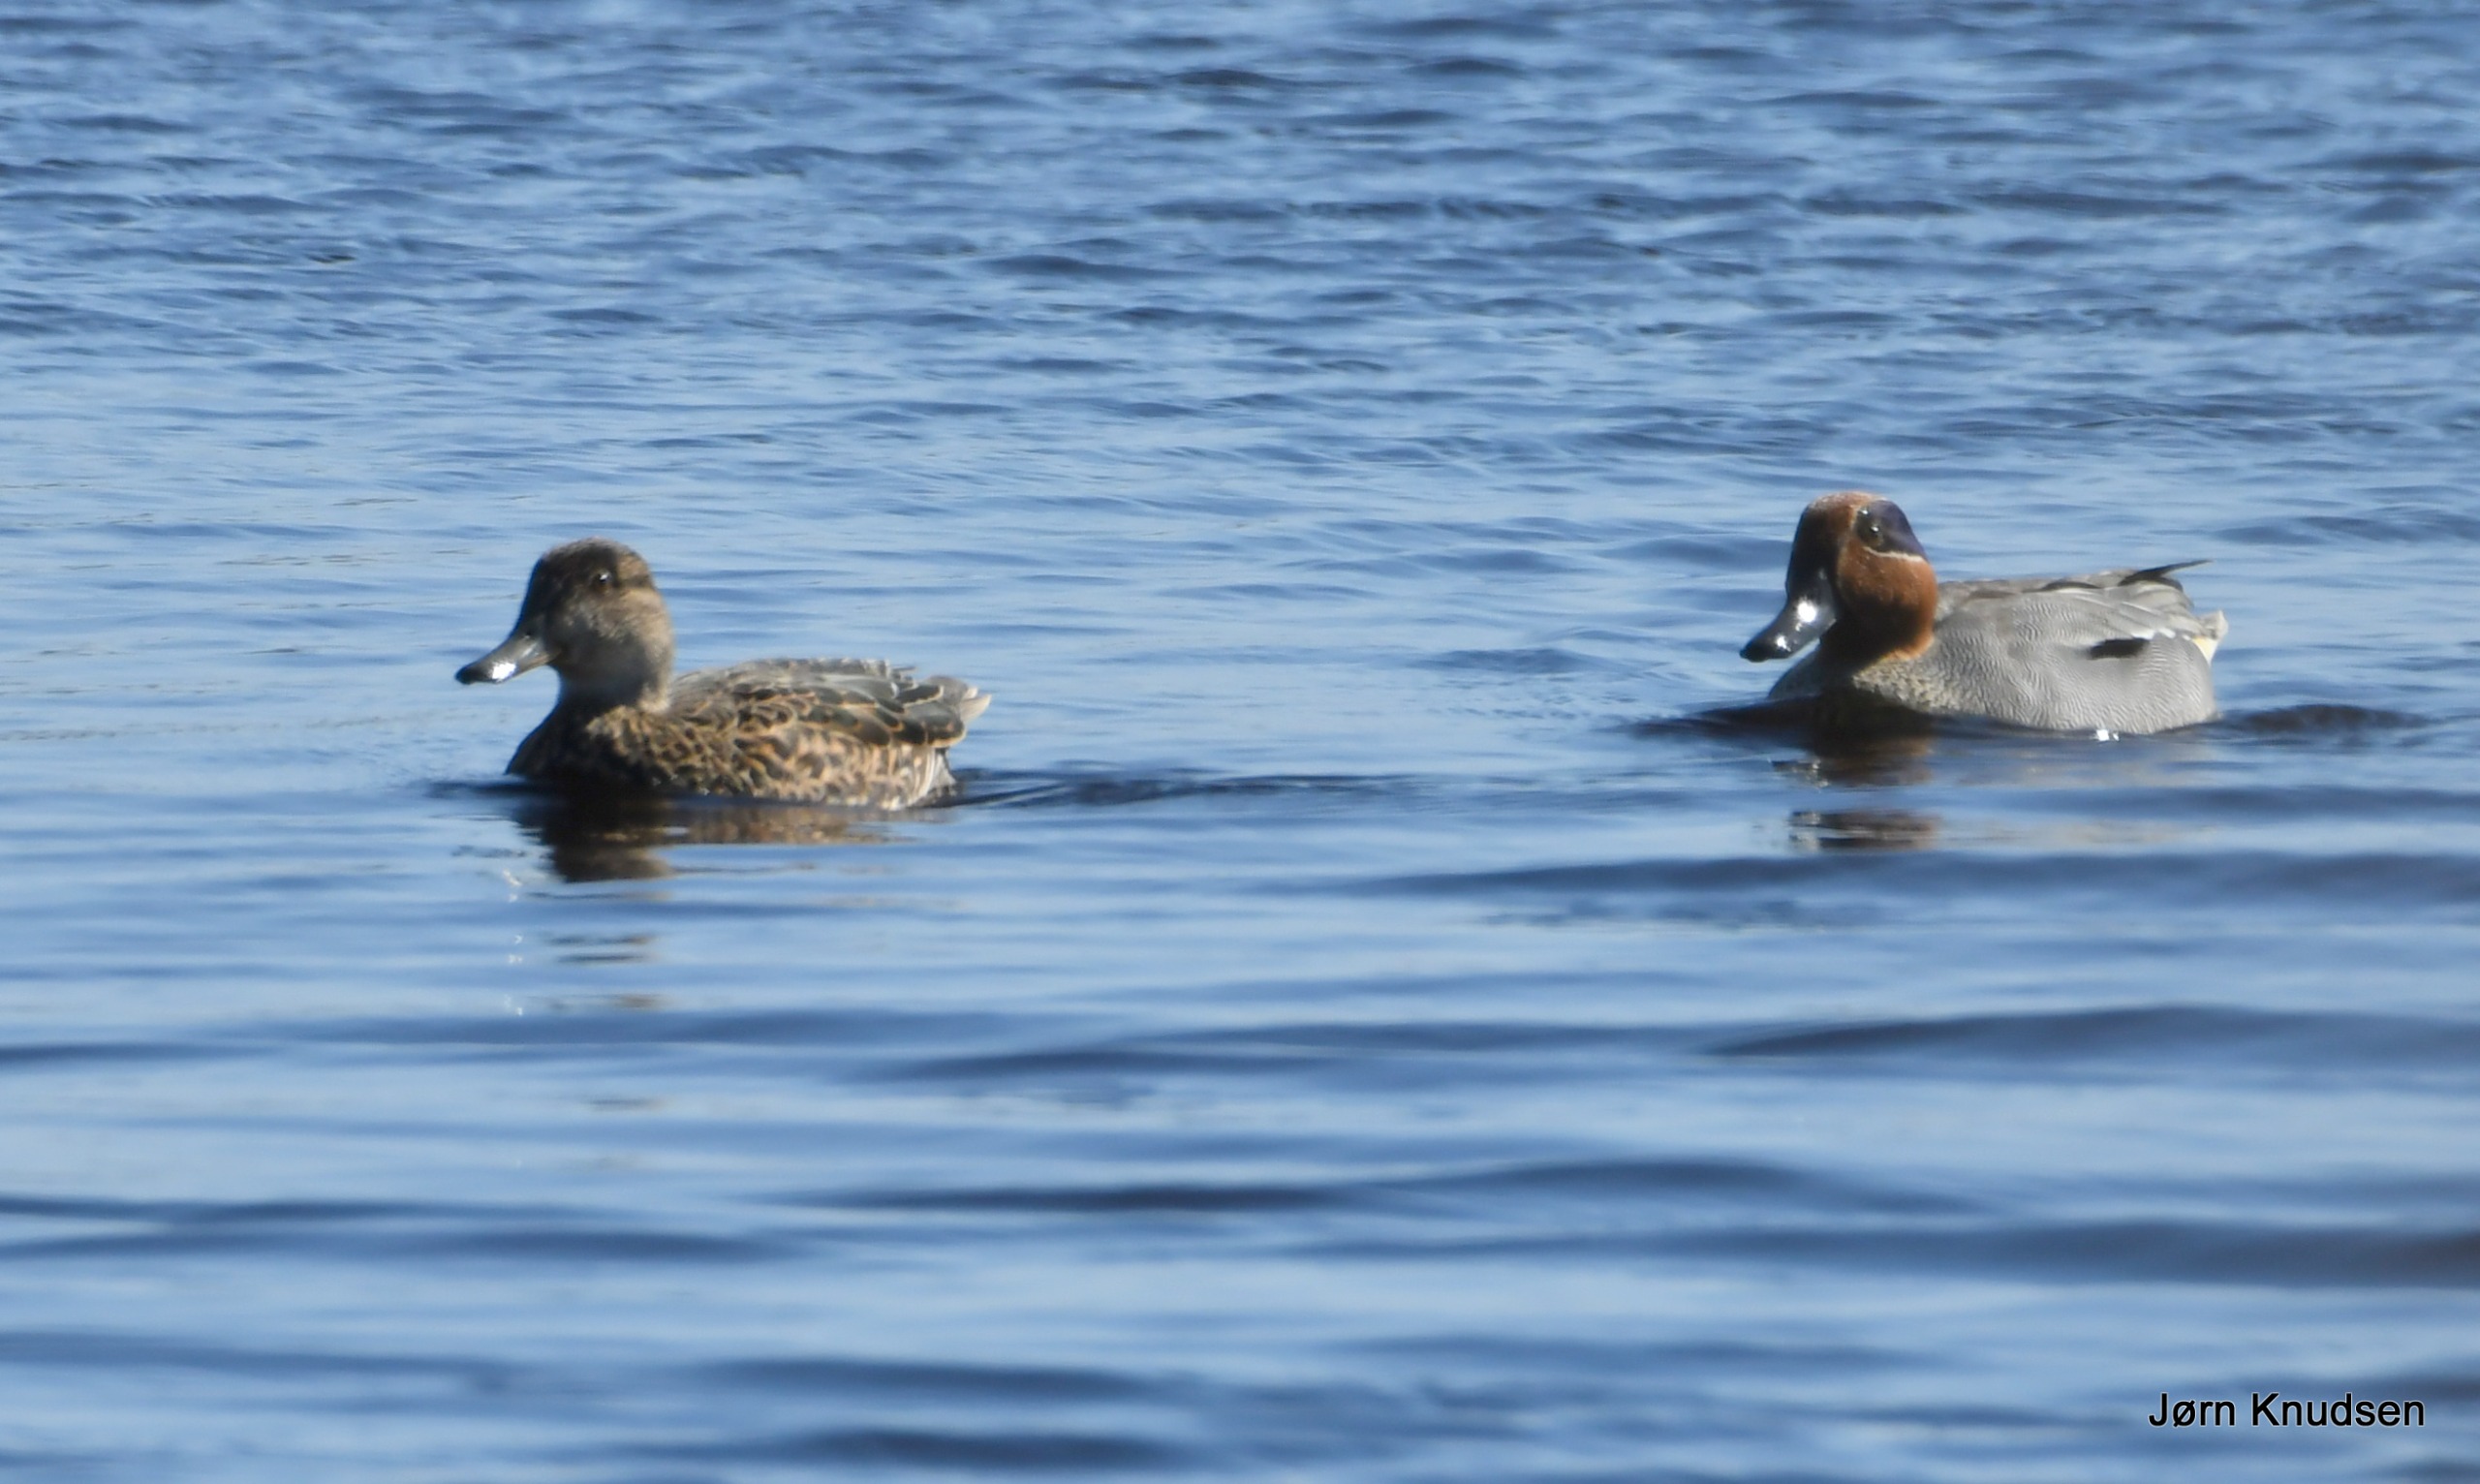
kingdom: Animalia
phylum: Chordata
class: Aves
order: Anseriformes
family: Anatidae
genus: Anas
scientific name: Anas crecca
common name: Krikand
